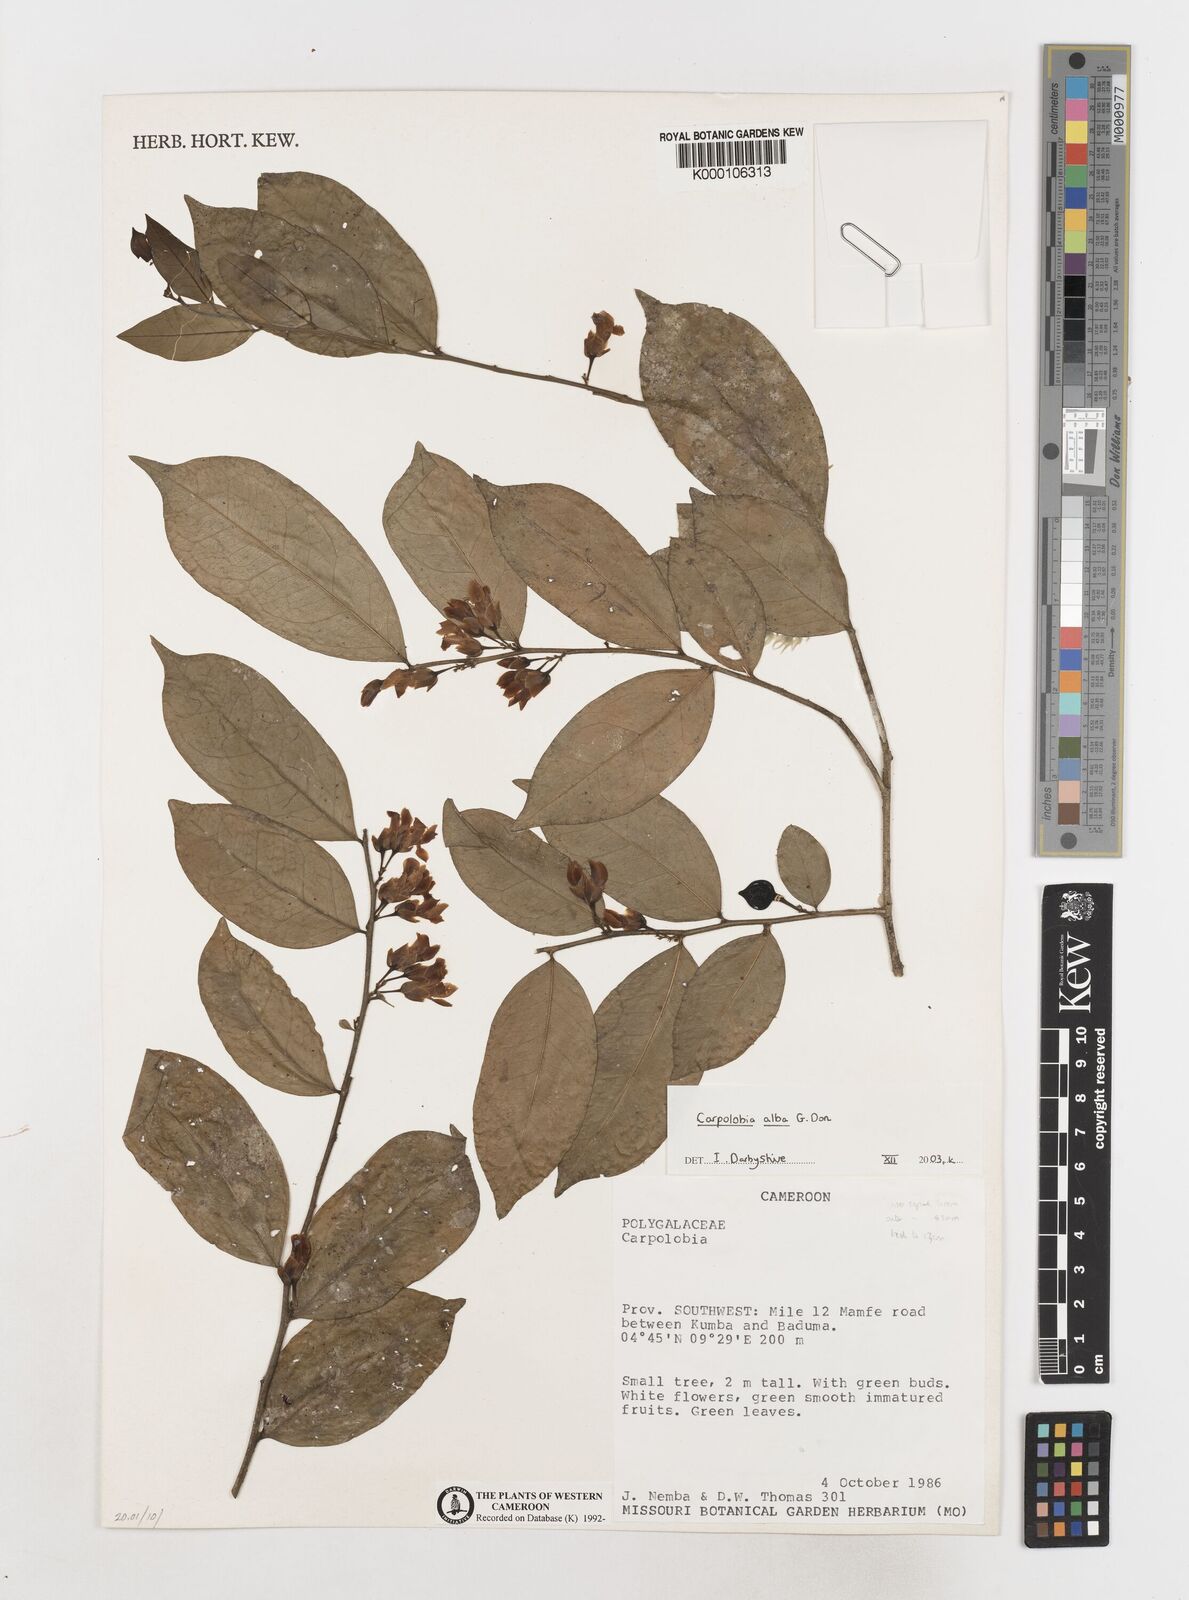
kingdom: Plantae
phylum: Tracheophyta
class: Magnoliopsida
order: Fabales
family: Polygalaceae
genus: Carpolobia
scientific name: Carpolobia alba
